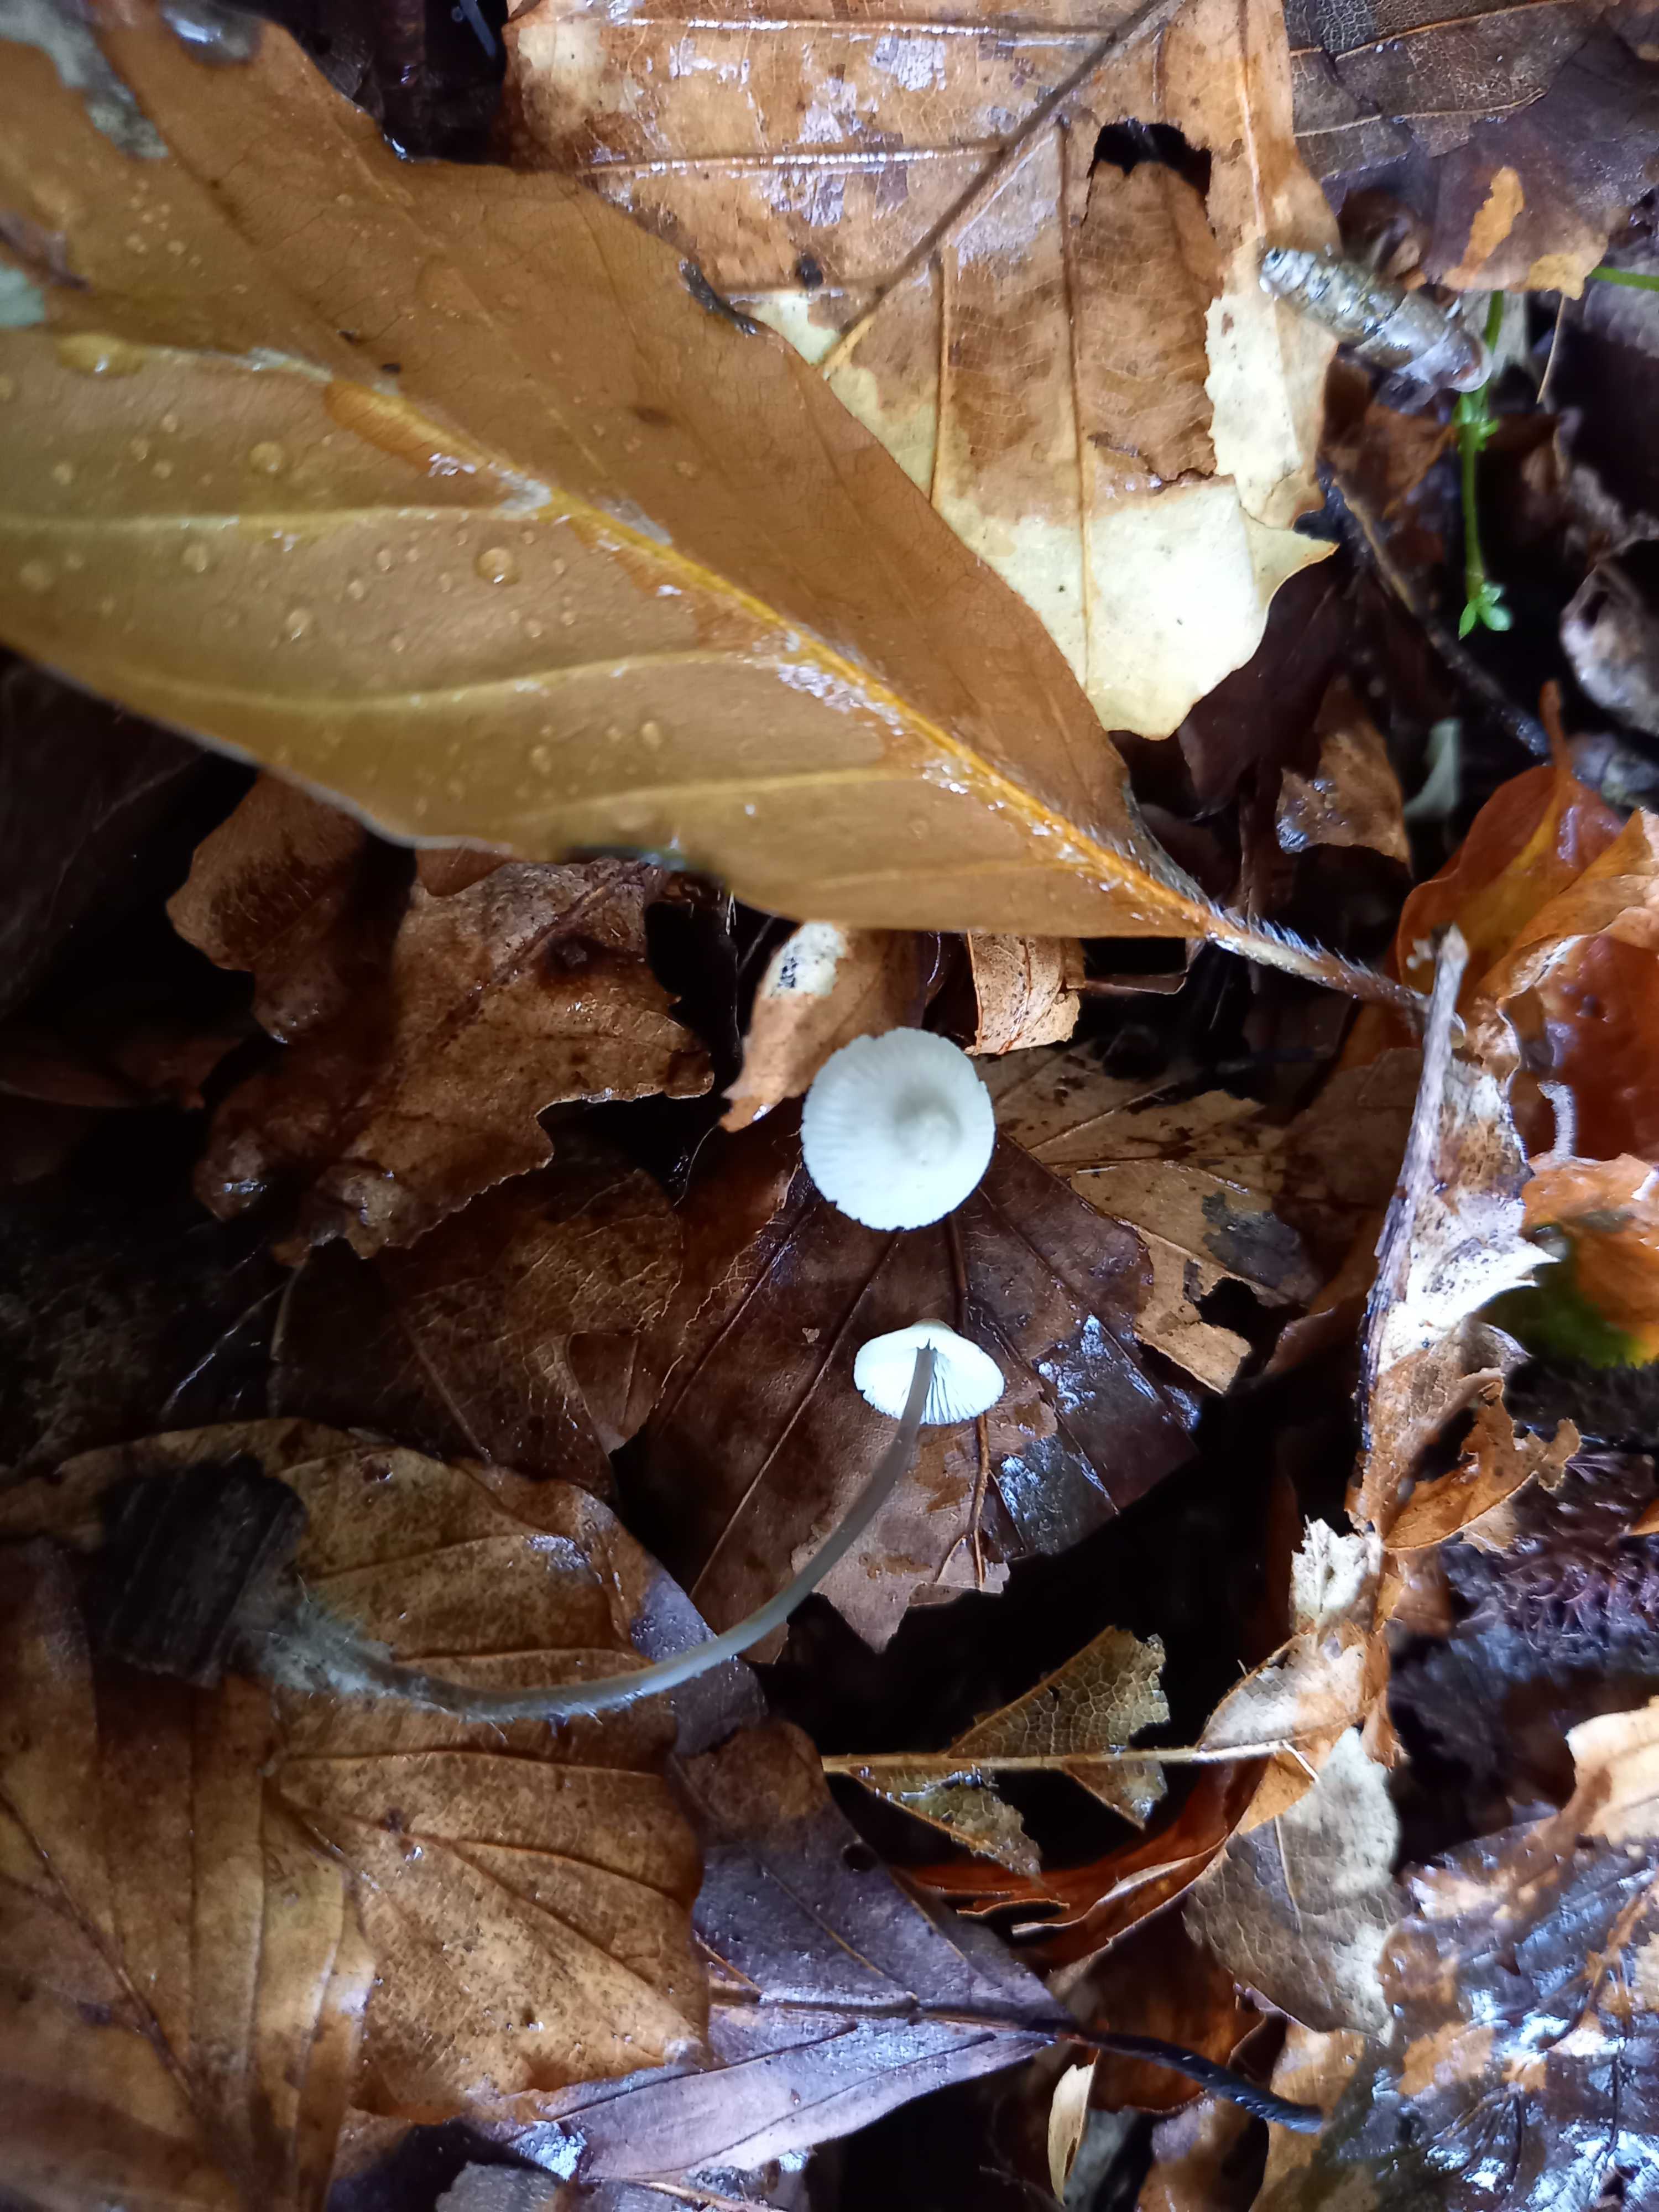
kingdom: Fungi
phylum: Basidiomycota
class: Agaricomycetes
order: Agaricales
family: Mycenaceae
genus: Mycena
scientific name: Mycena flavescens
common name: grågul huesvamp
